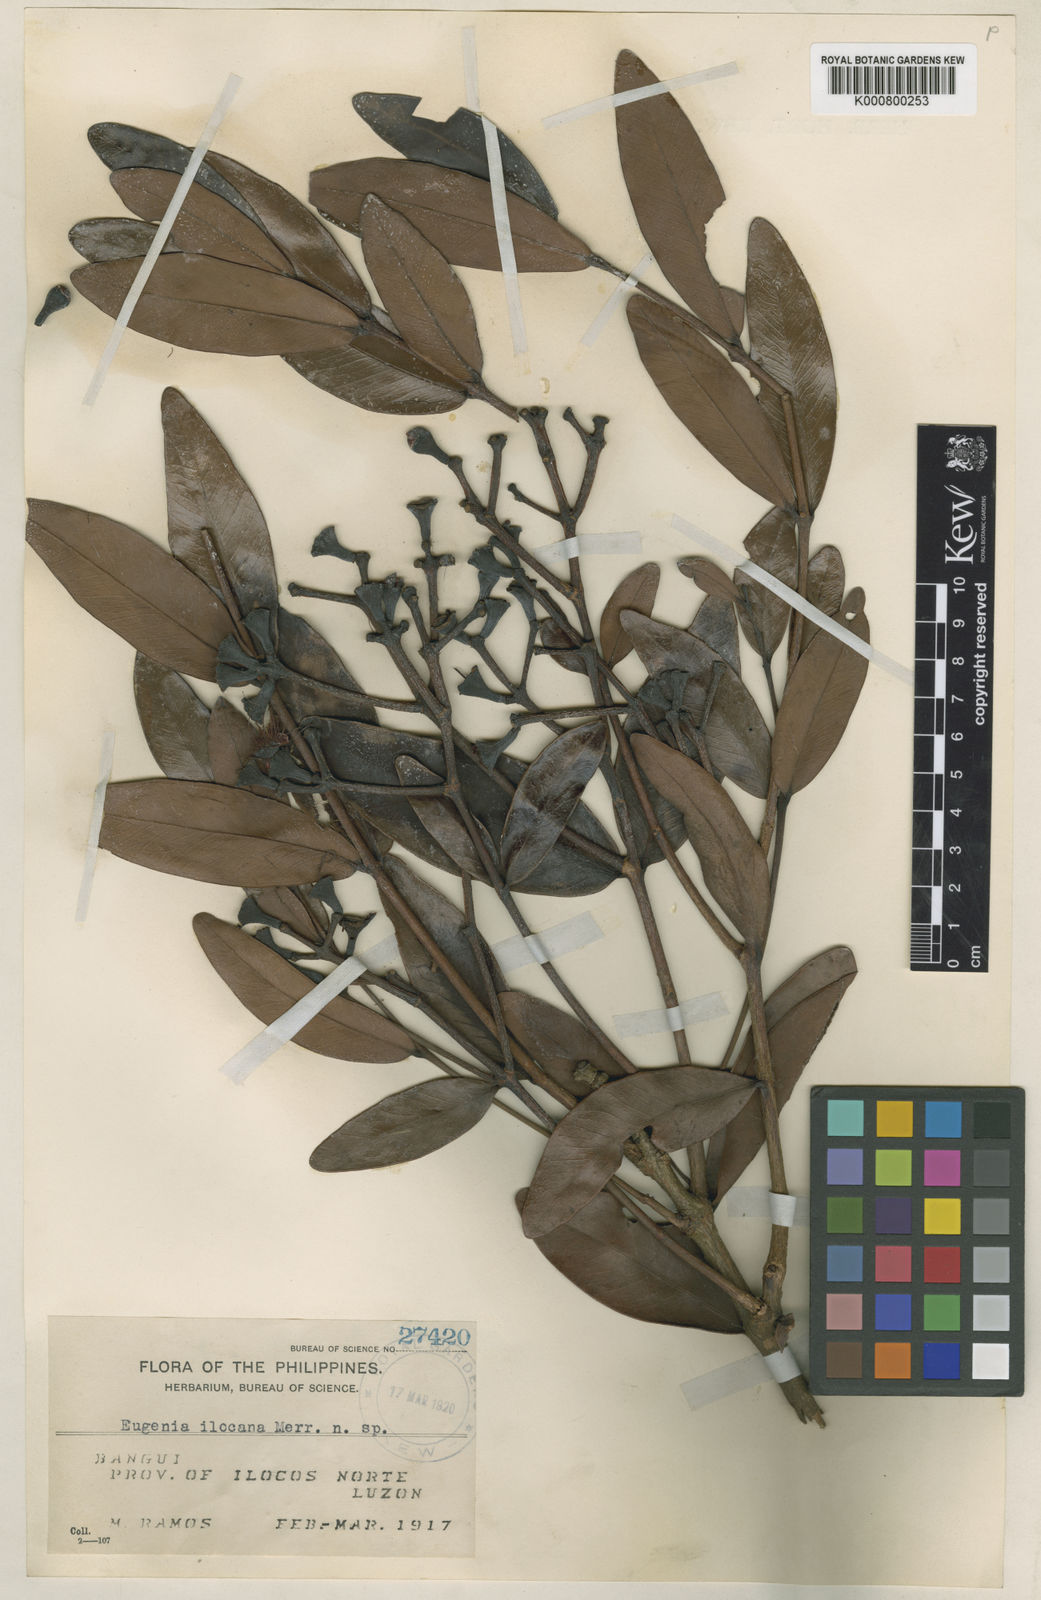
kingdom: Plantae
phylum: Tracheophyta
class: Magnoliopsida
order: Myrtales
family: Myrtaceae
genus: Syzygium
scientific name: Syzygium ilocanum
